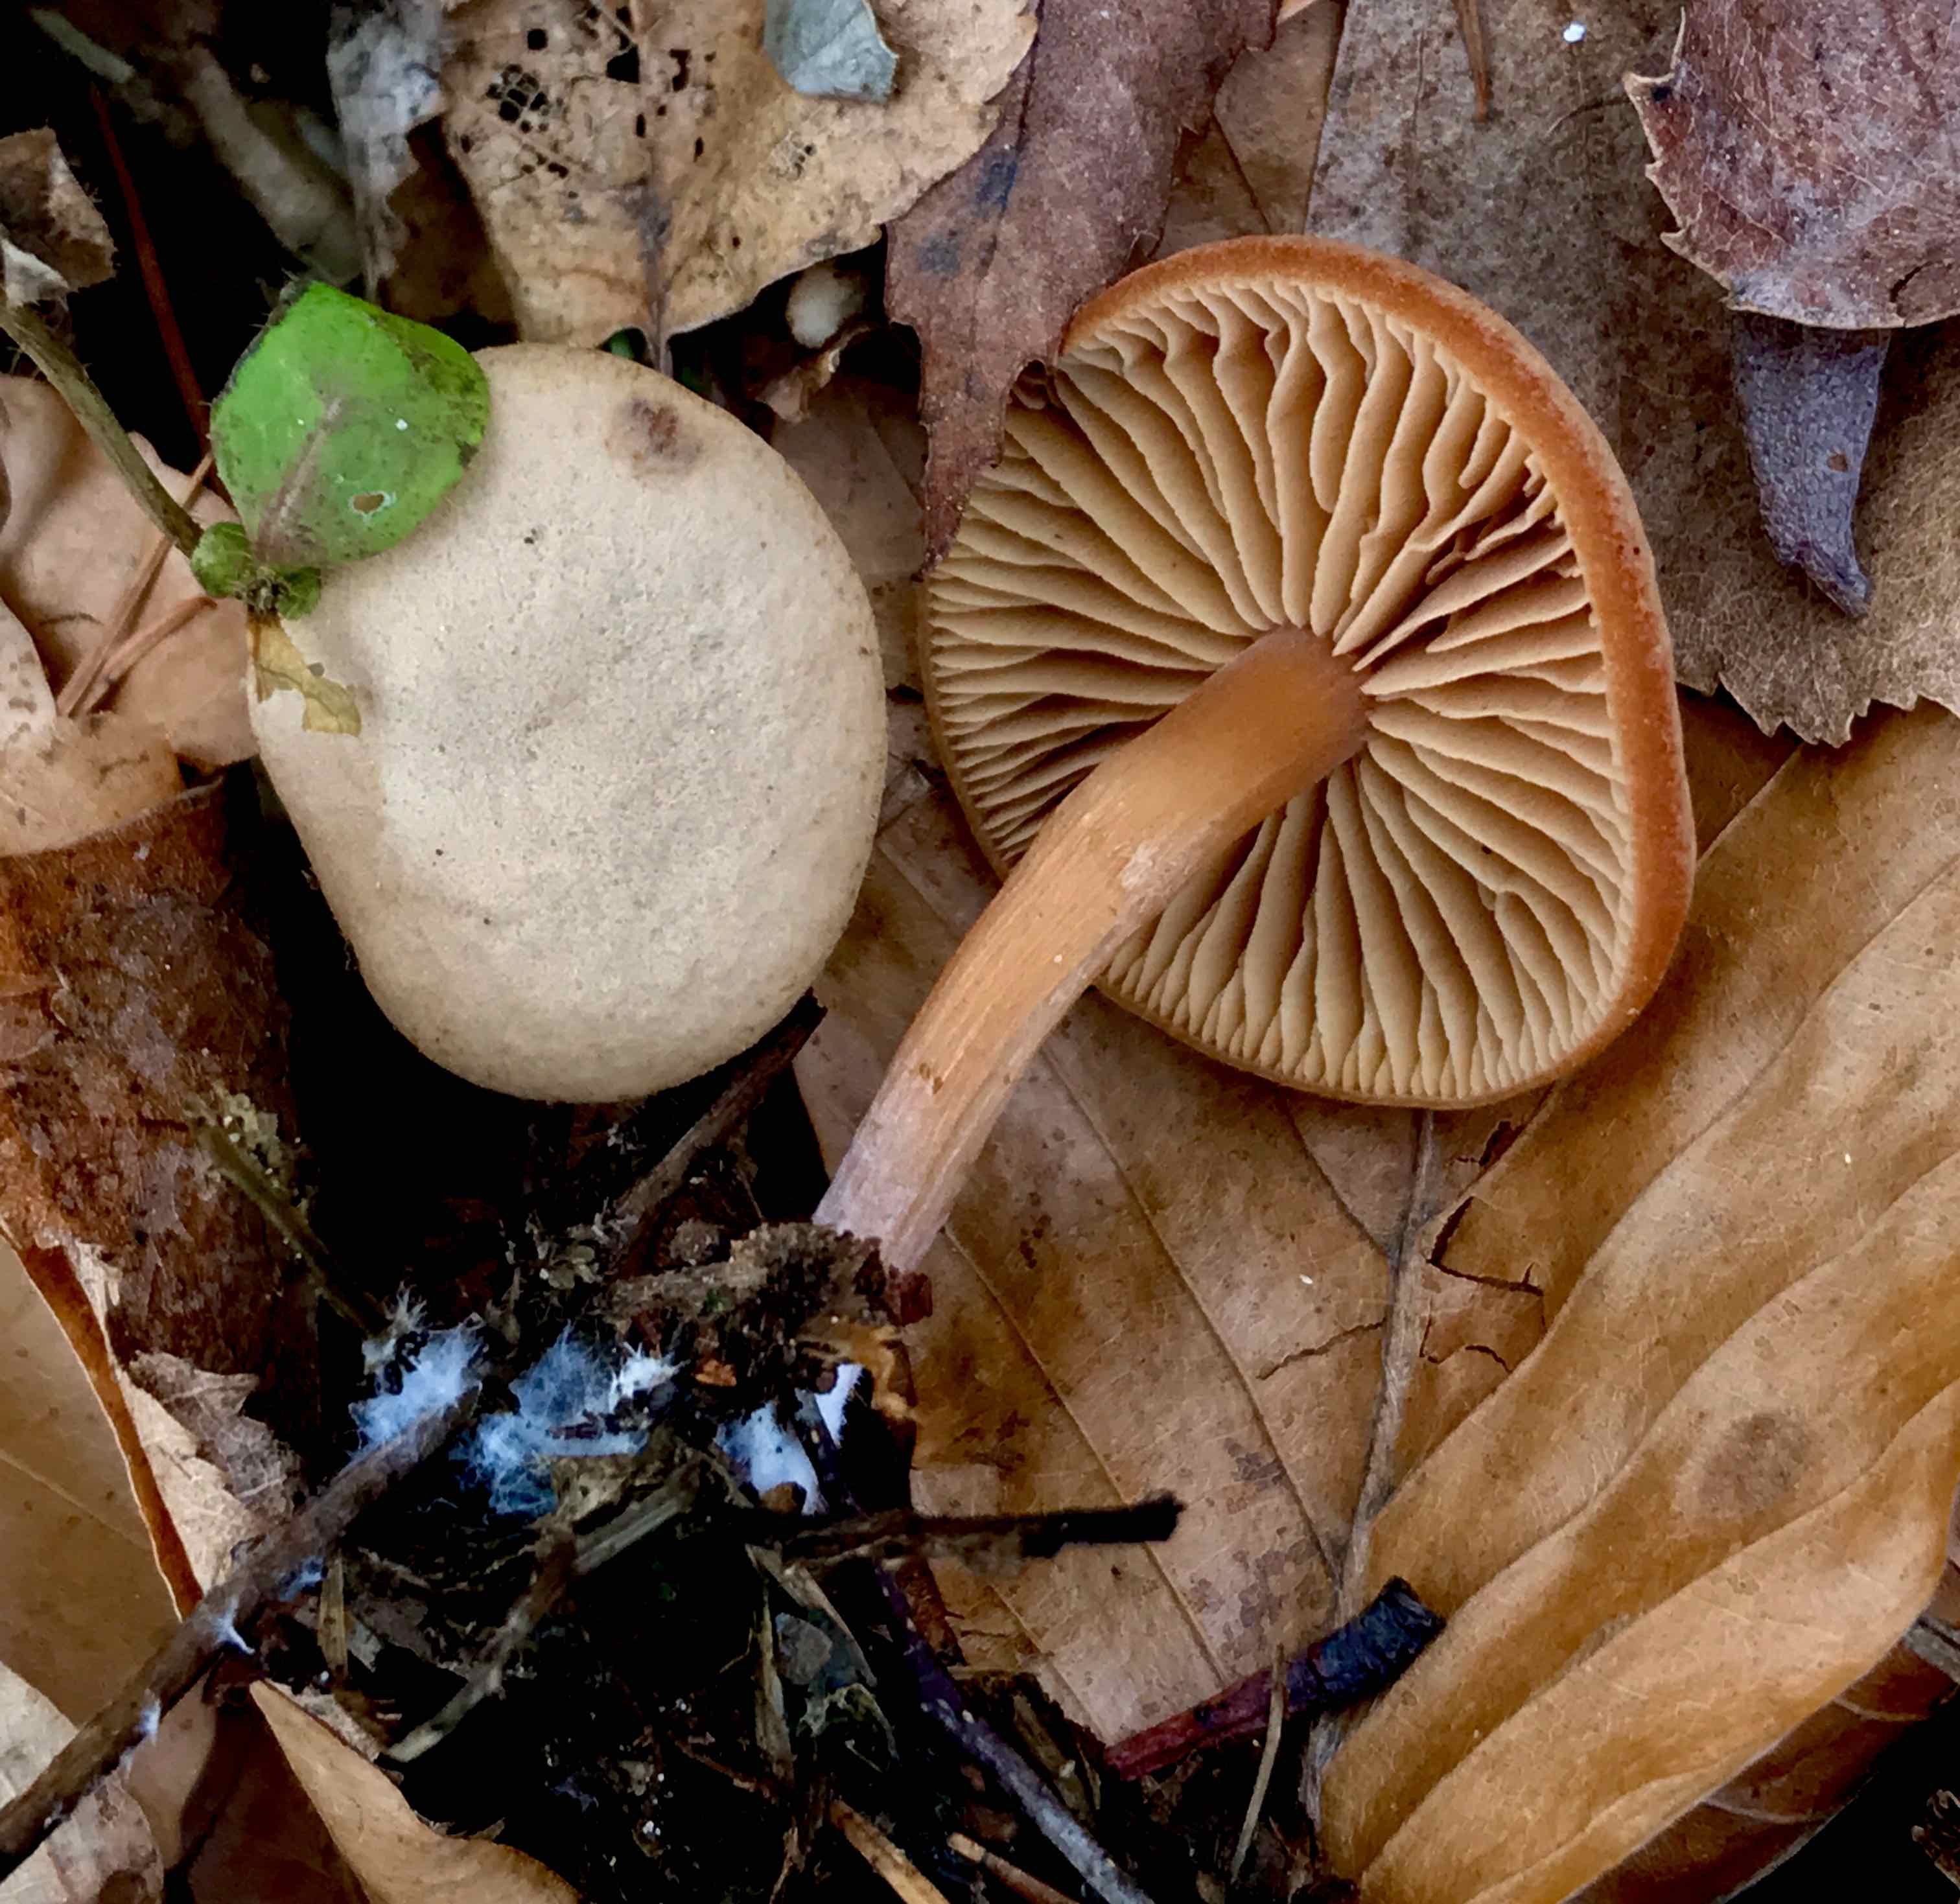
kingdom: Fungi
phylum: Basidiomycota
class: Agaricomycetes
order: Agaricales
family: Tubariaceae
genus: Tubaria
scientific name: Tubaria furfuracea
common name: kliddet fnughat
